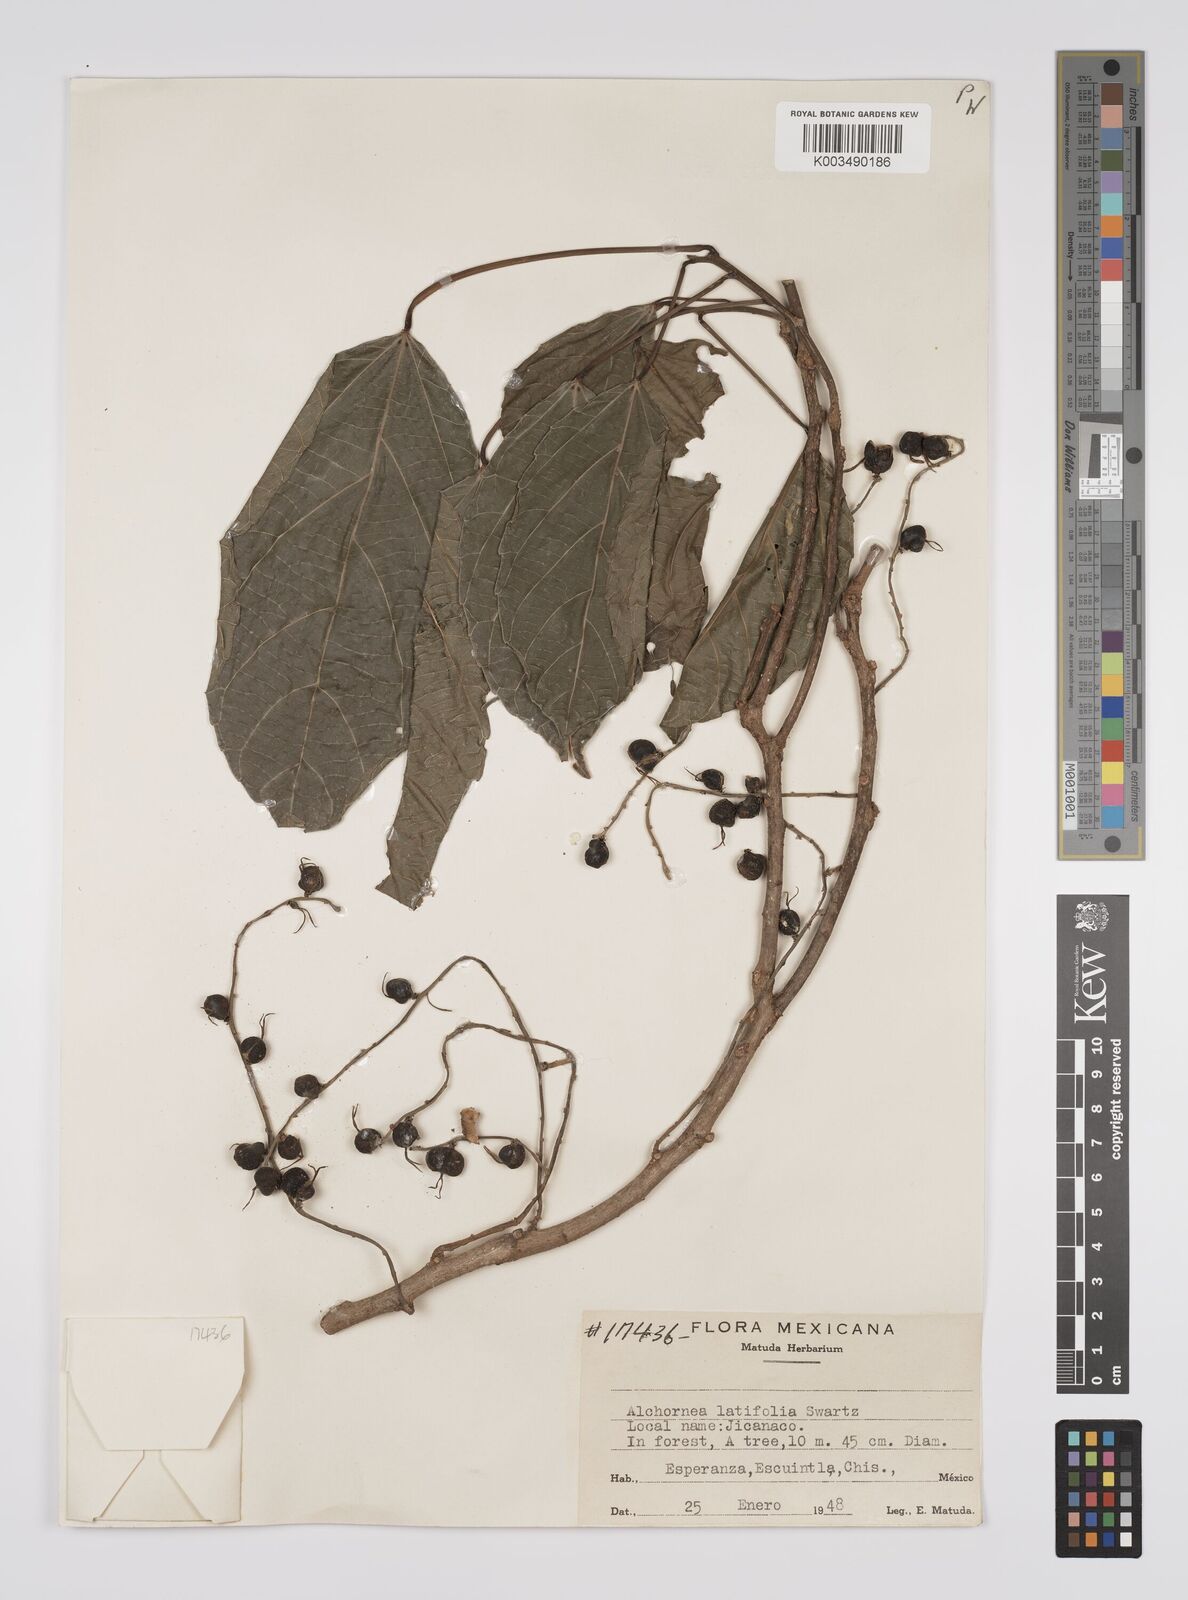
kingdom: Plantae
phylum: Tracheophyta
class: Magnoliopsida
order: Malpighiales
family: Euphorbiaceae
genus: Alchornea
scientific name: Alchornea latifolia
